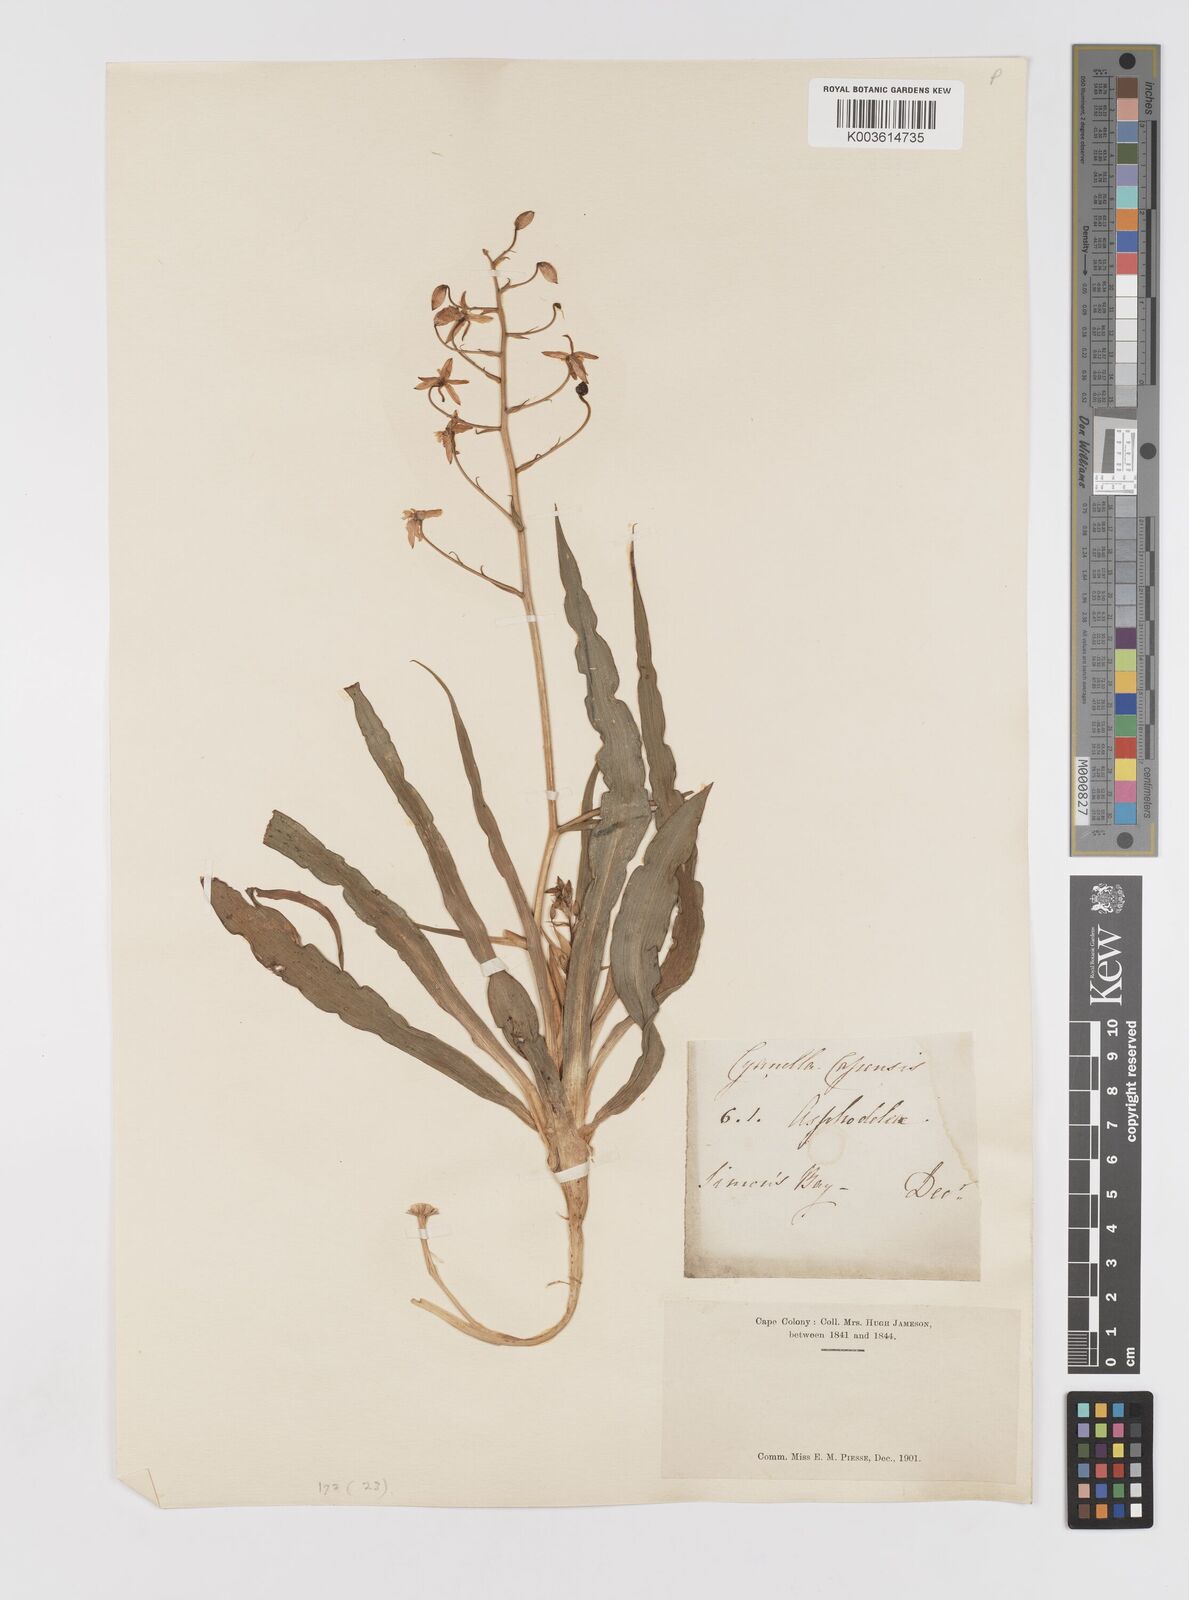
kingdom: Plantae
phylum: Tracheophyta
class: Liliopsida
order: Asparagales
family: Tecophilaeaceae
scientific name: Tecophilaeaceae
